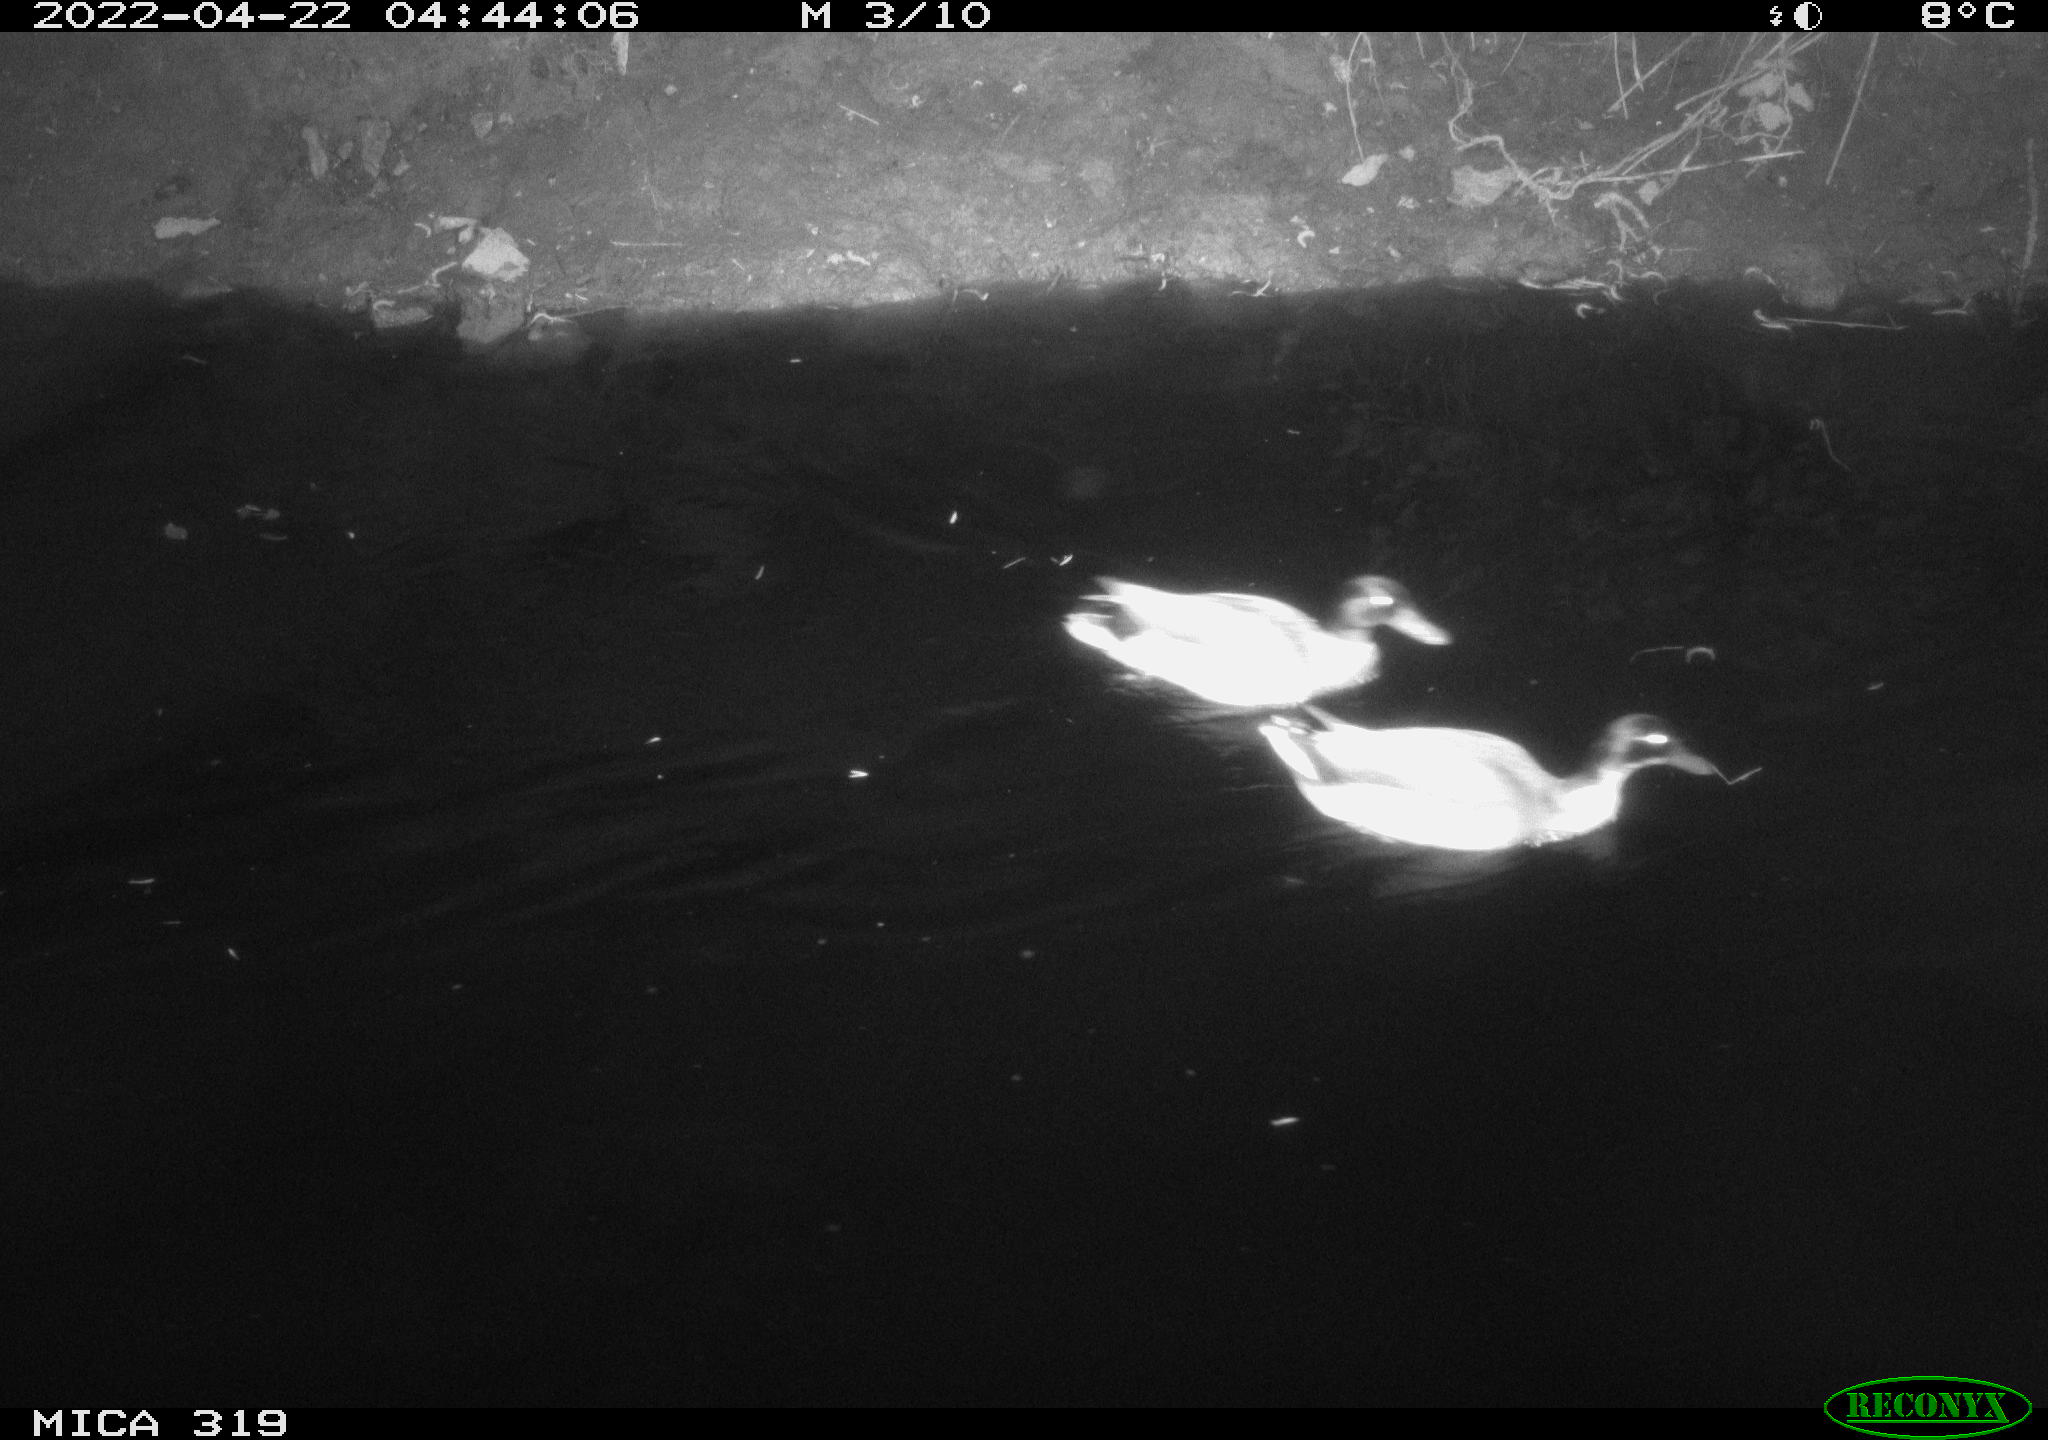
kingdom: Animalia
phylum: Chordata
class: Aves
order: Anseriformes
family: Anatidae
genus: Anas
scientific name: Anas platyrhynchos
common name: Mallard
